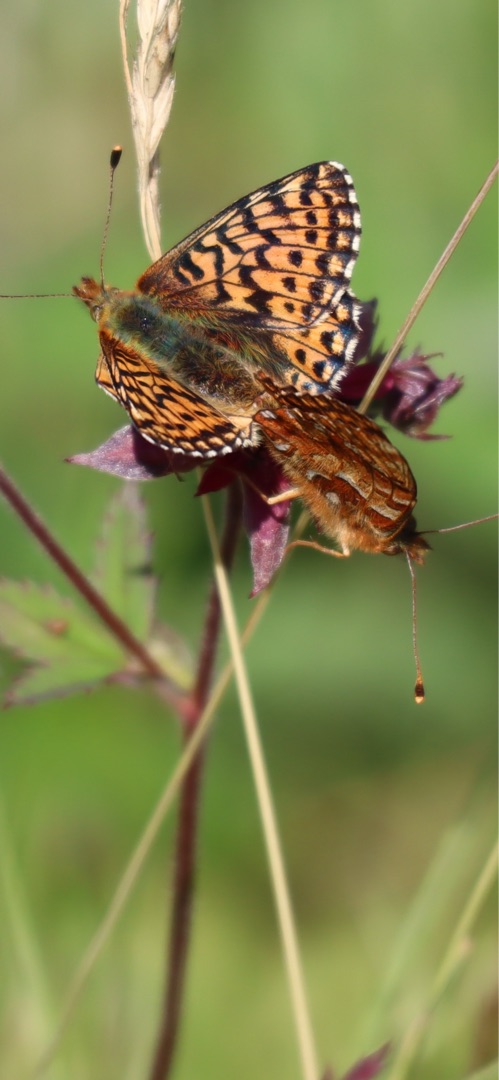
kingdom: Animalia
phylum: Arthropoda
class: Insecta
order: Lepidoptera
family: Nymphalidae
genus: Boloria
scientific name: Boloria aquilonaris
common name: Moseperlemorsommerfugl
